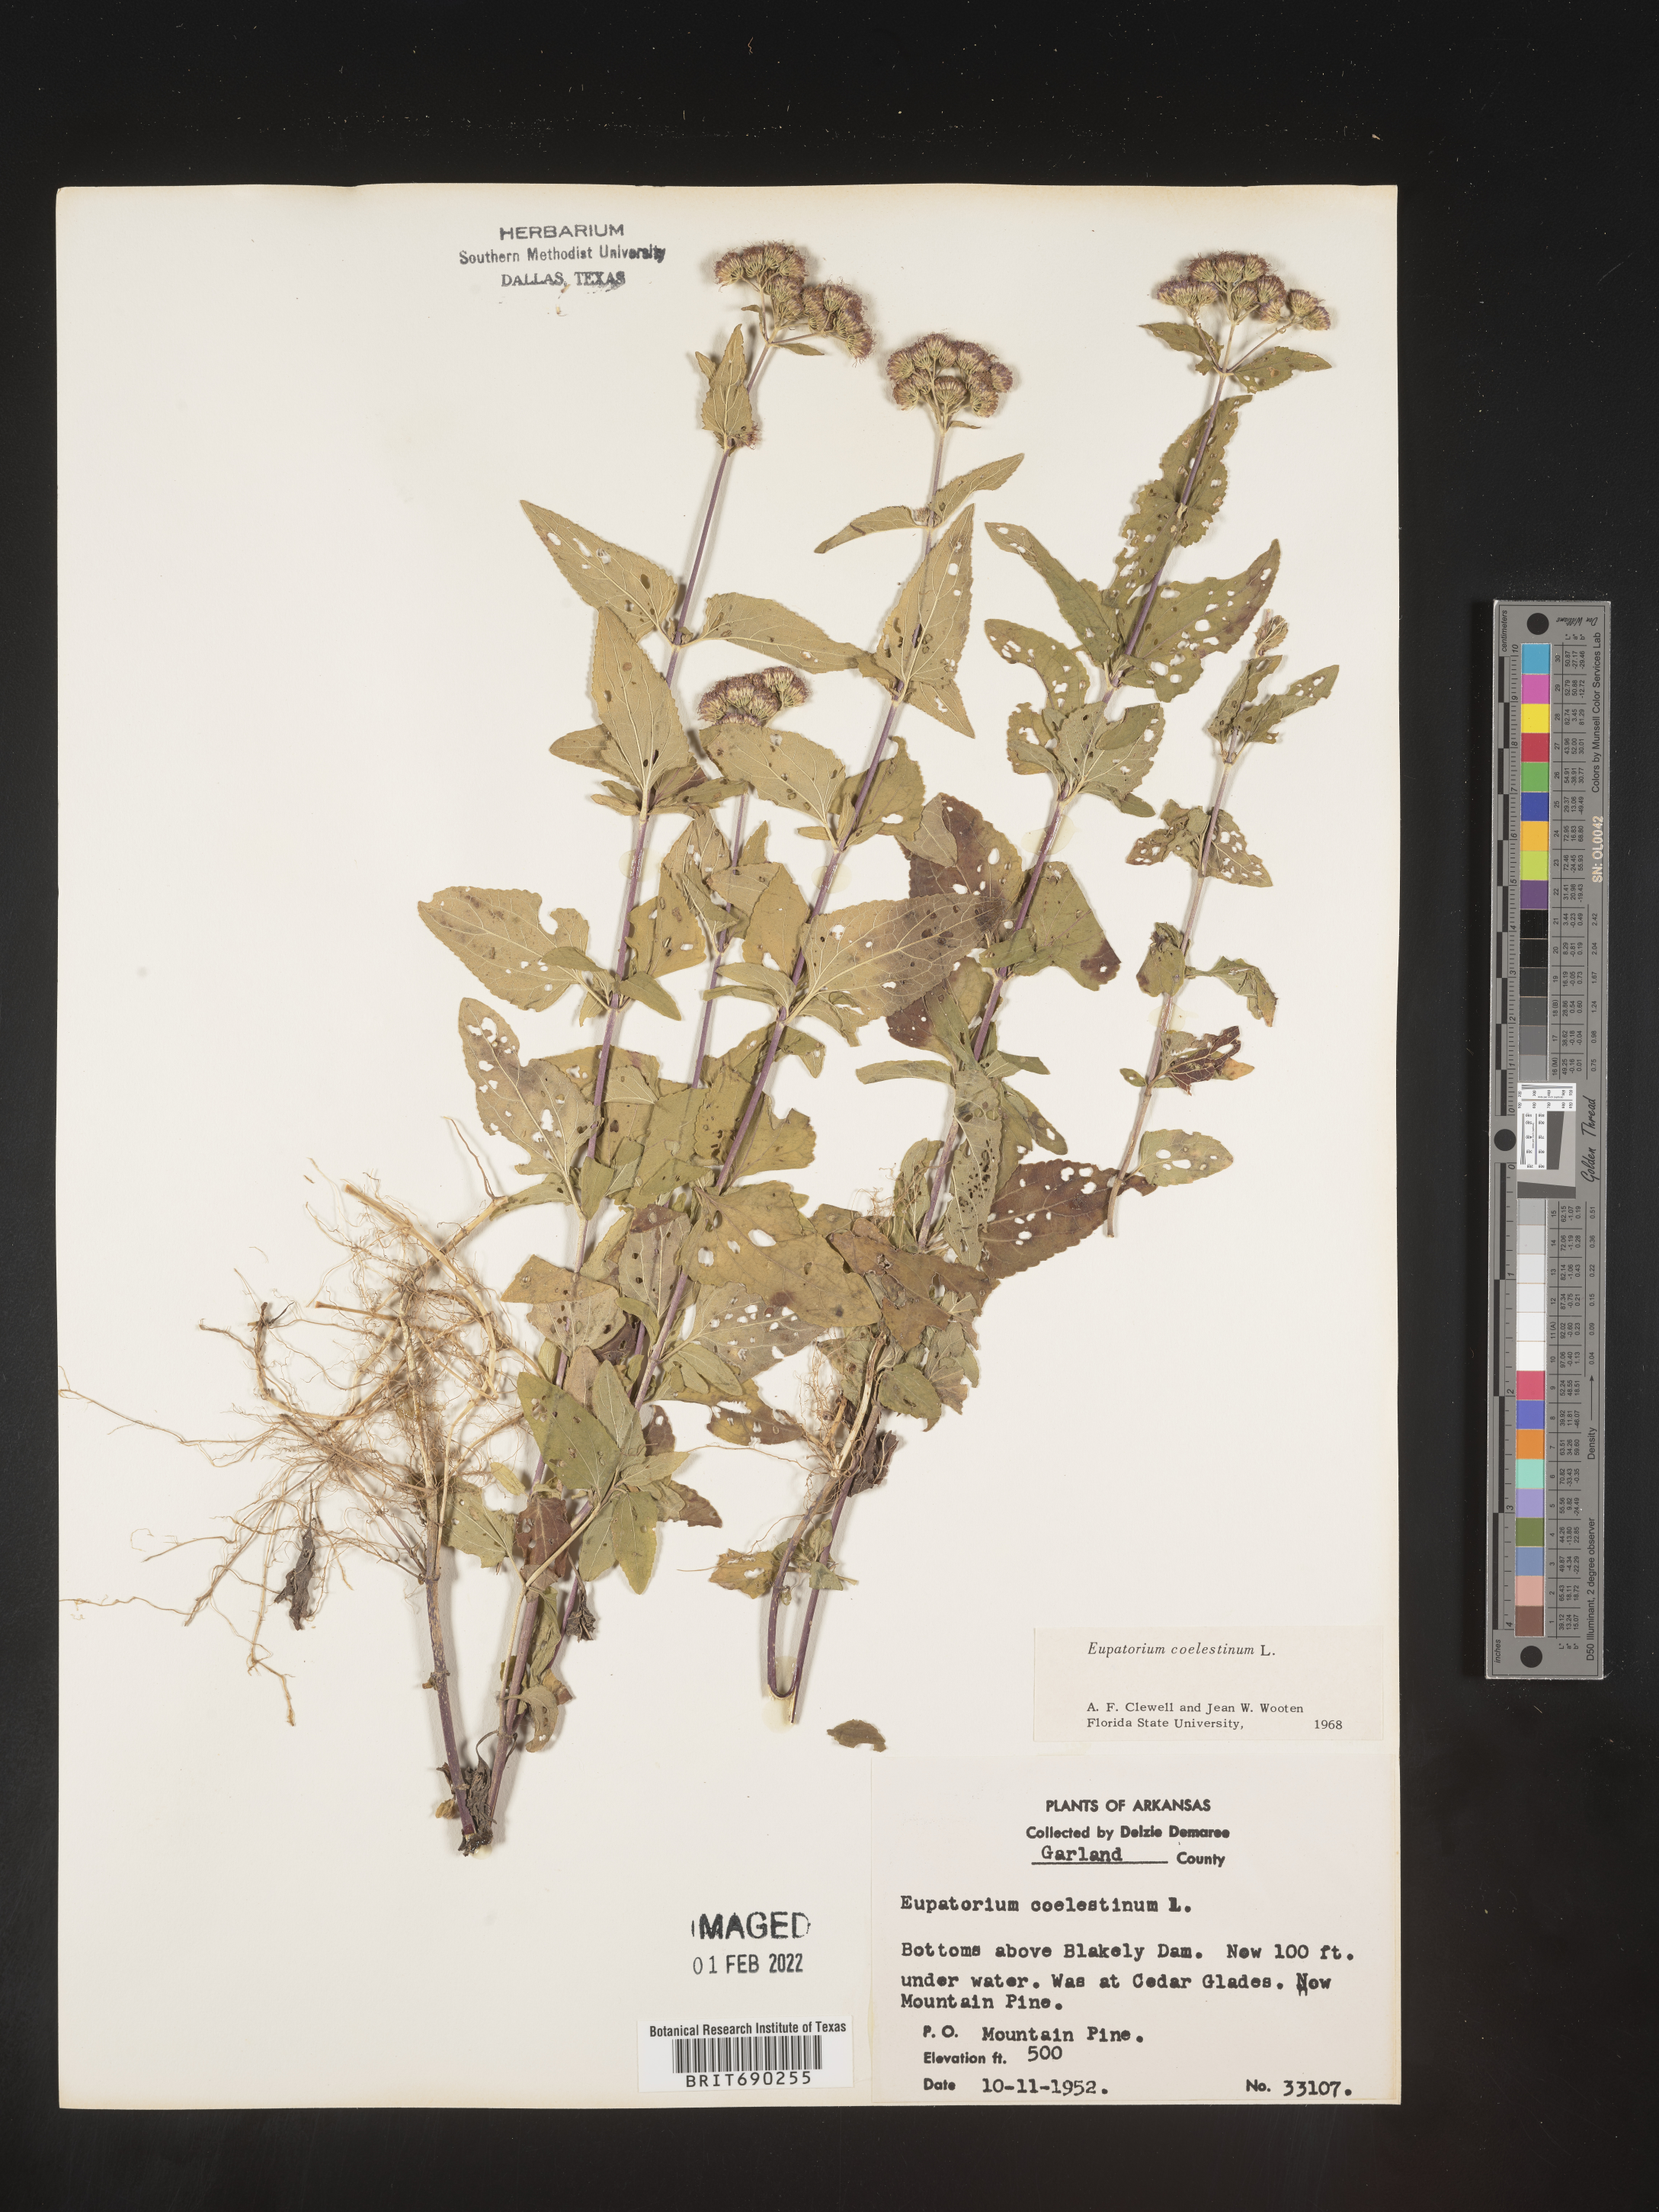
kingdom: Plantae
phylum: Tracheophyta
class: Magnoliopsida
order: Asterales
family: Asteraceae
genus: Conoclinium
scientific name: Conoclinium coelestinum
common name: Blue mistflower
